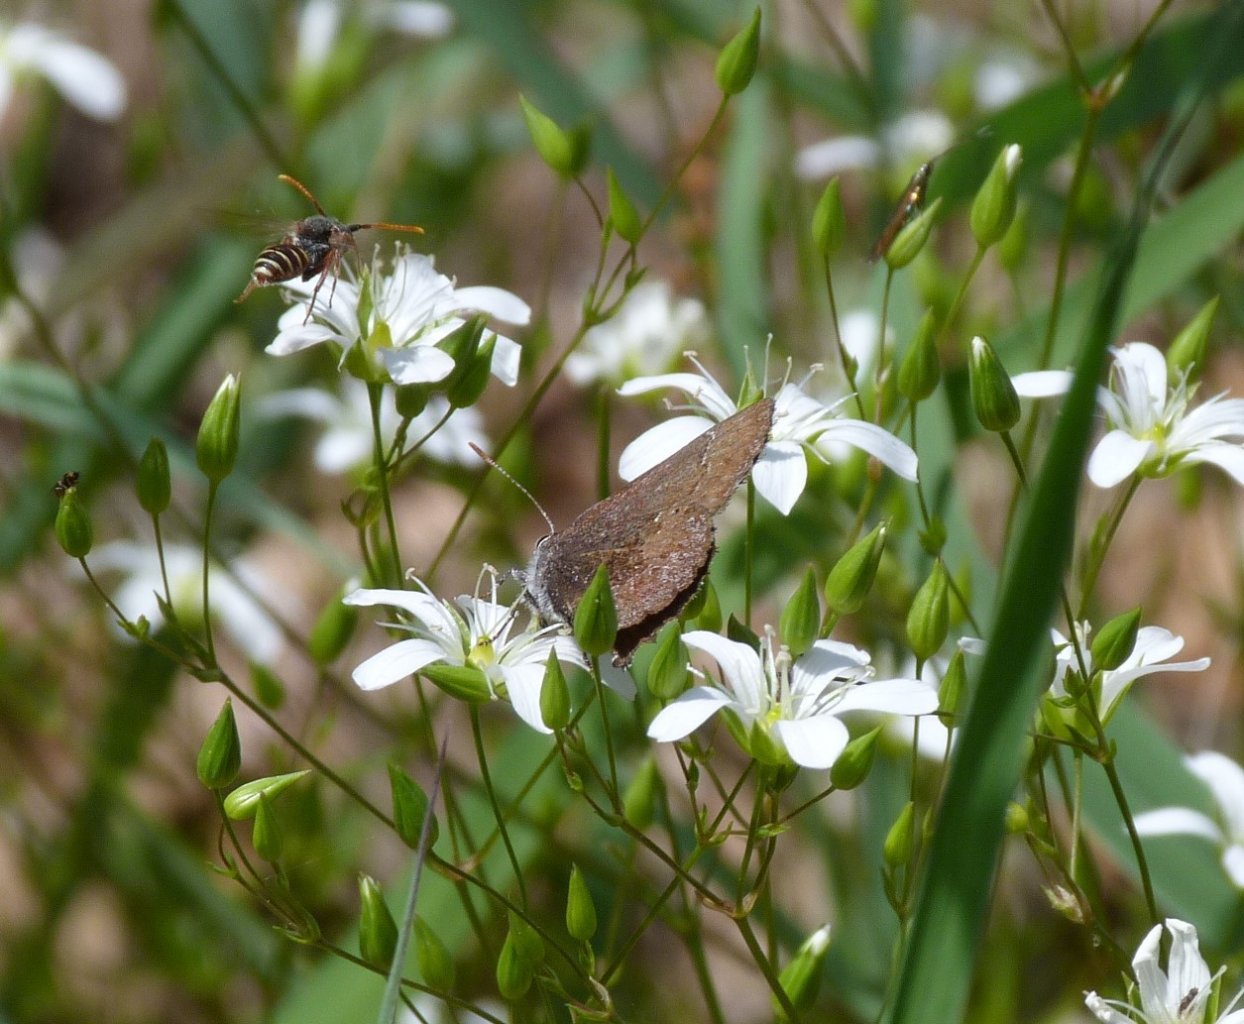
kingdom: Animalia
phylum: Arthropoda
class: Insecta
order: Lepidoptera
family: Lycaenidae
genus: Callophrys
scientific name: Callophrys polios
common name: Hoary Elfin
